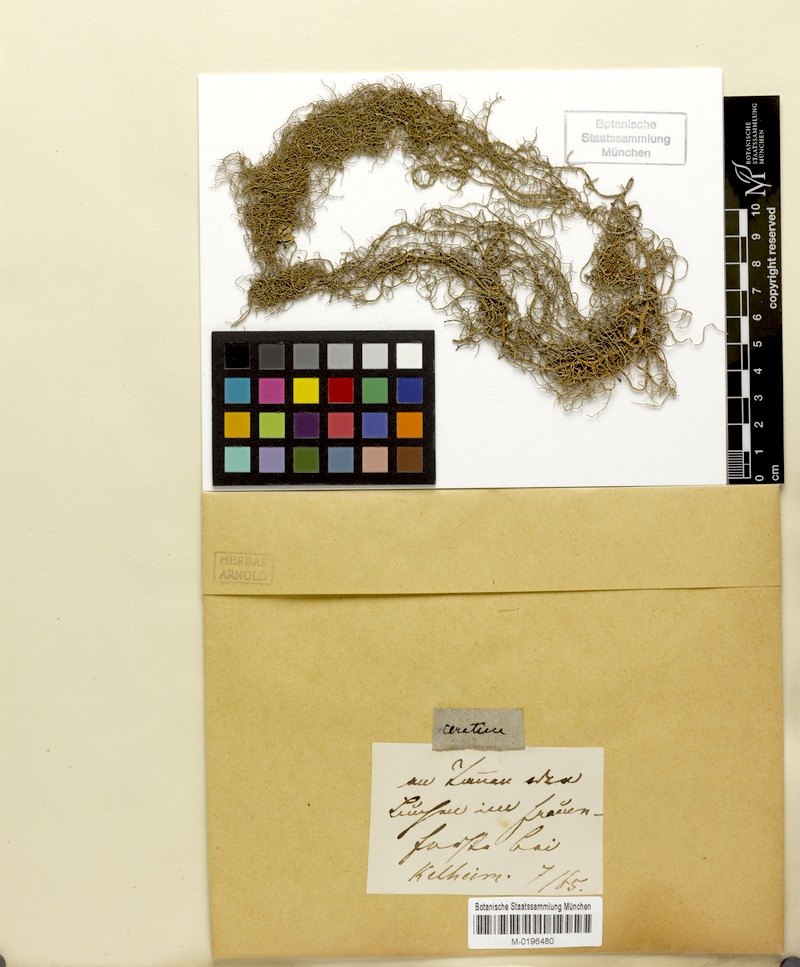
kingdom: Fungi
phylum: Ascomycota
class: Lecanoromycetes
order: Lecanorales
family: Parmeliaceae
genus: Usnea
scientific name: Usnea ceratina
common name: Warty beard lichen
